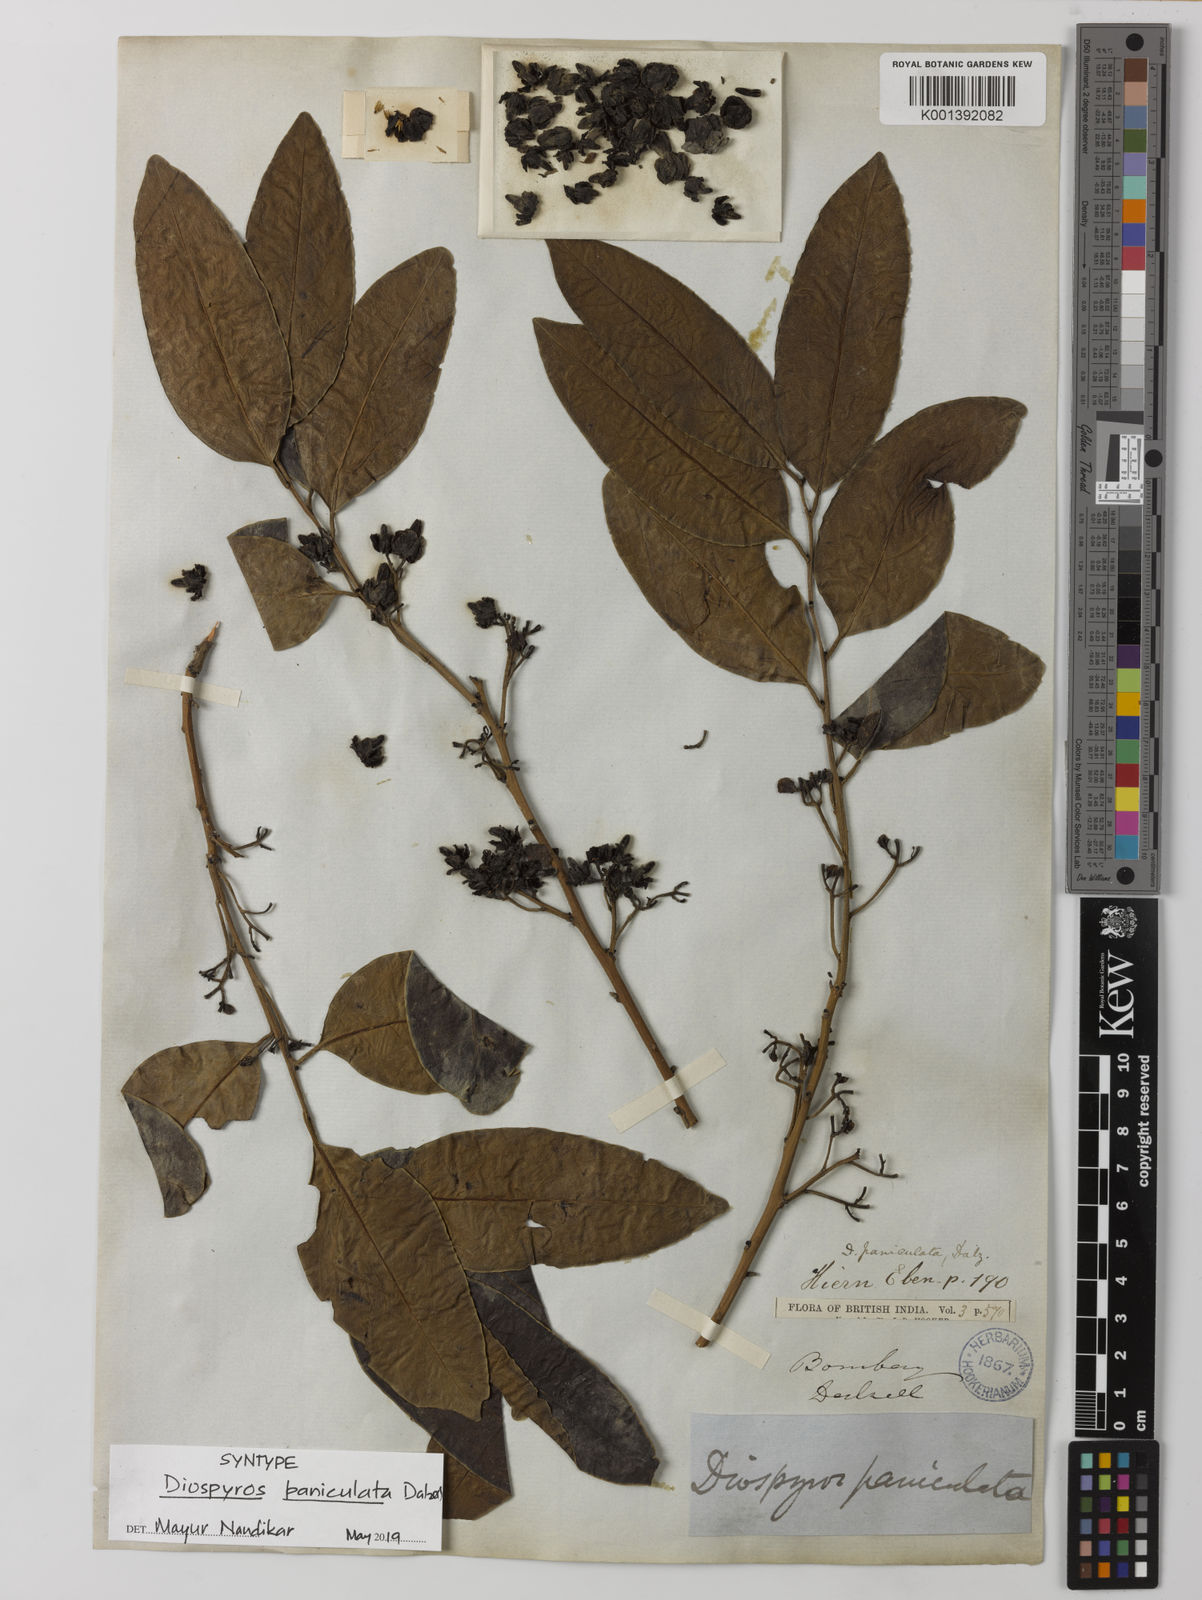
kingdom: Plantae
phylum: Tracheophyta
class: Magnoliopsida
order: Ericales
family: Ebenaceae
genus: Diospyros
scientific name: Diospyros paniculata
